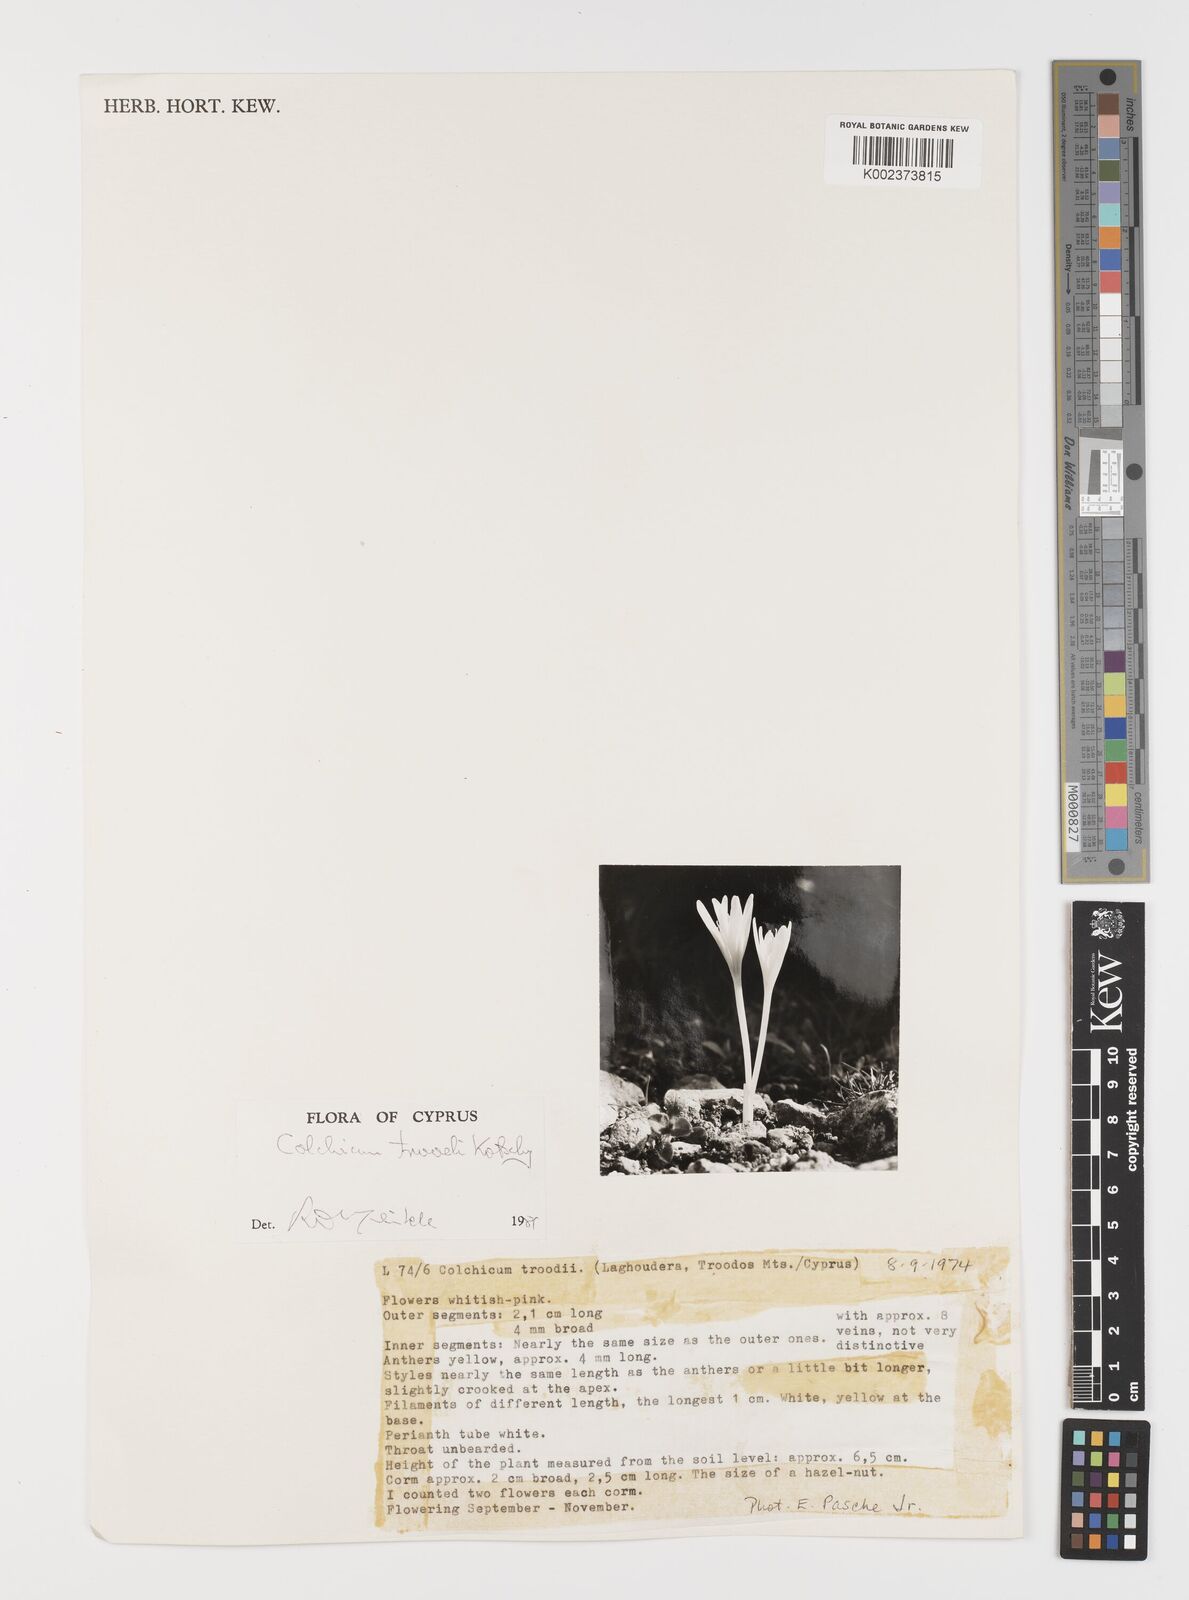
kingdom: Plantae
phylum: Tracheophyta
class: Liliopsida
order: Liliales
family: Colchicaceae
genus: Colchicum
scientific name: Colchicum troodi
